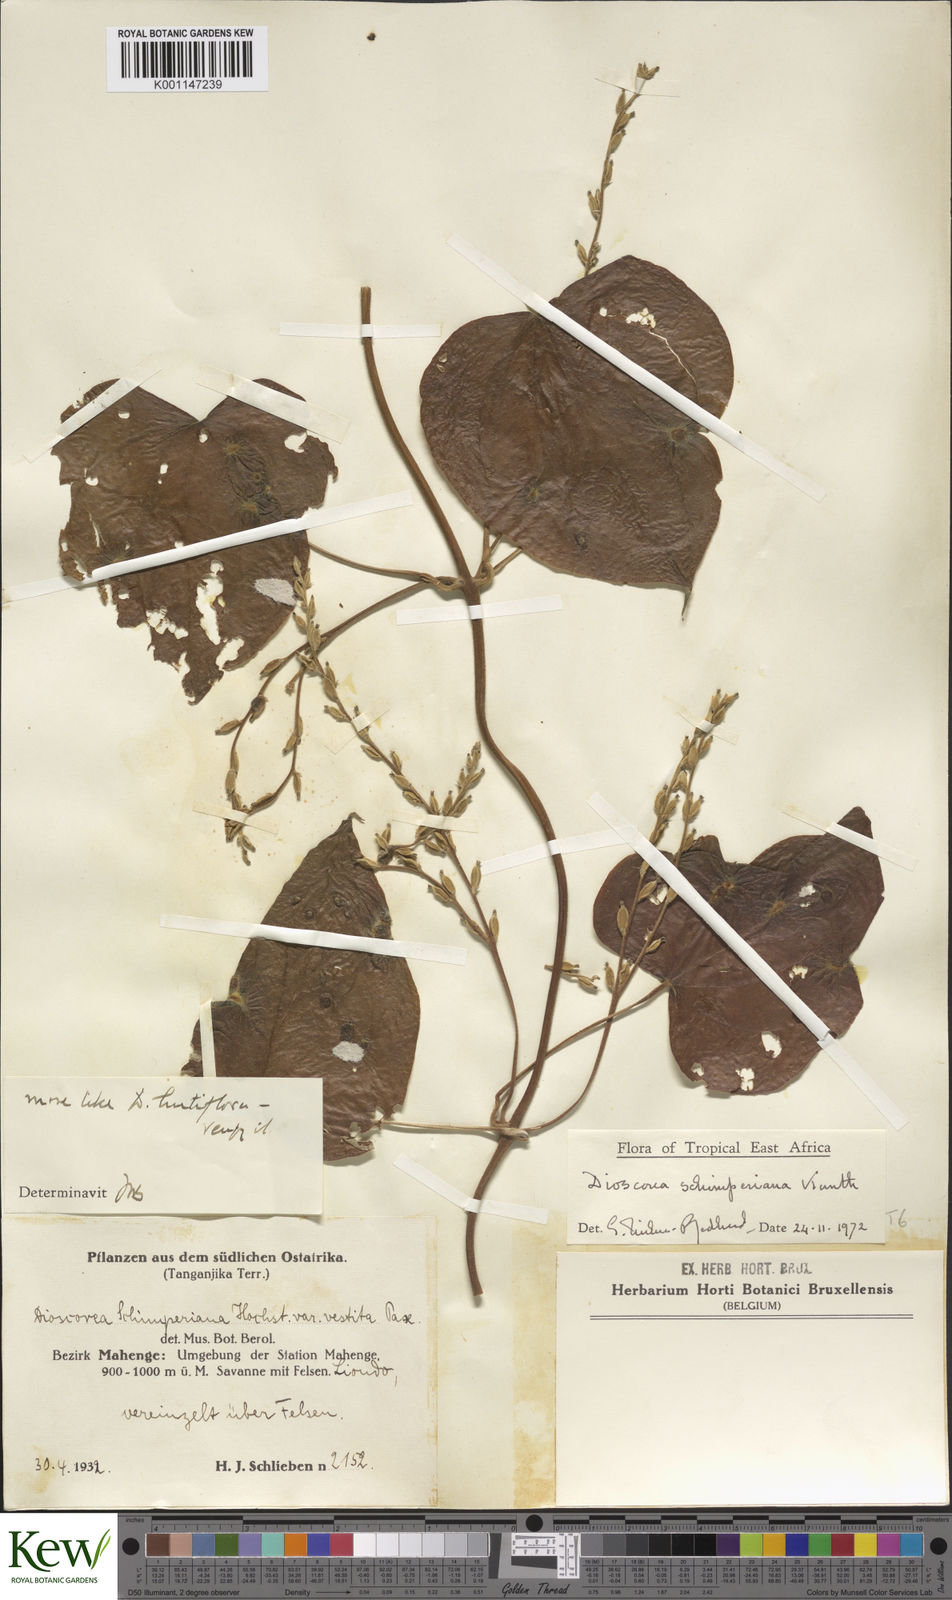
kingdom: Plantae
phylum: Tracheophyta
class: Liliopsida
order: Dioscoreales
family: Dioscoreaceae
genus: Dioscorea
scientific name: Dioscorea schimperiana
